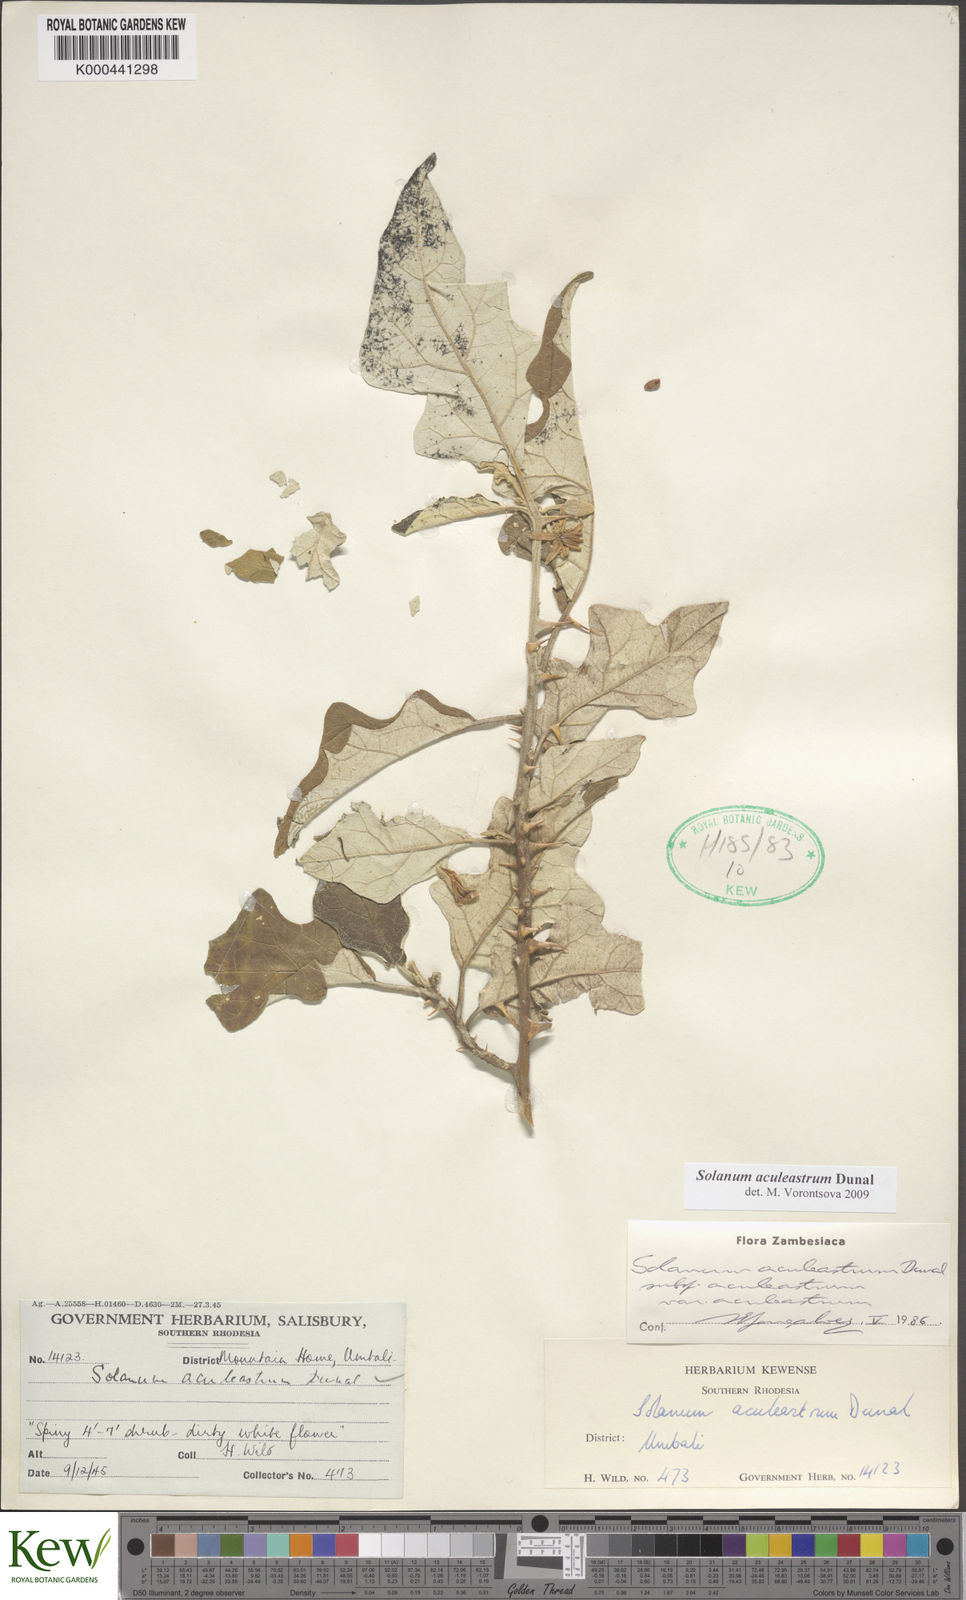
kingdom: Plantae
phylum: Tracheophyta
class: Magnoliopsida
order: Solanales
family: Solanaceae
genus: Solanum
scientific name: Solanum aculeastrum
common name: Goat bitter-apple
